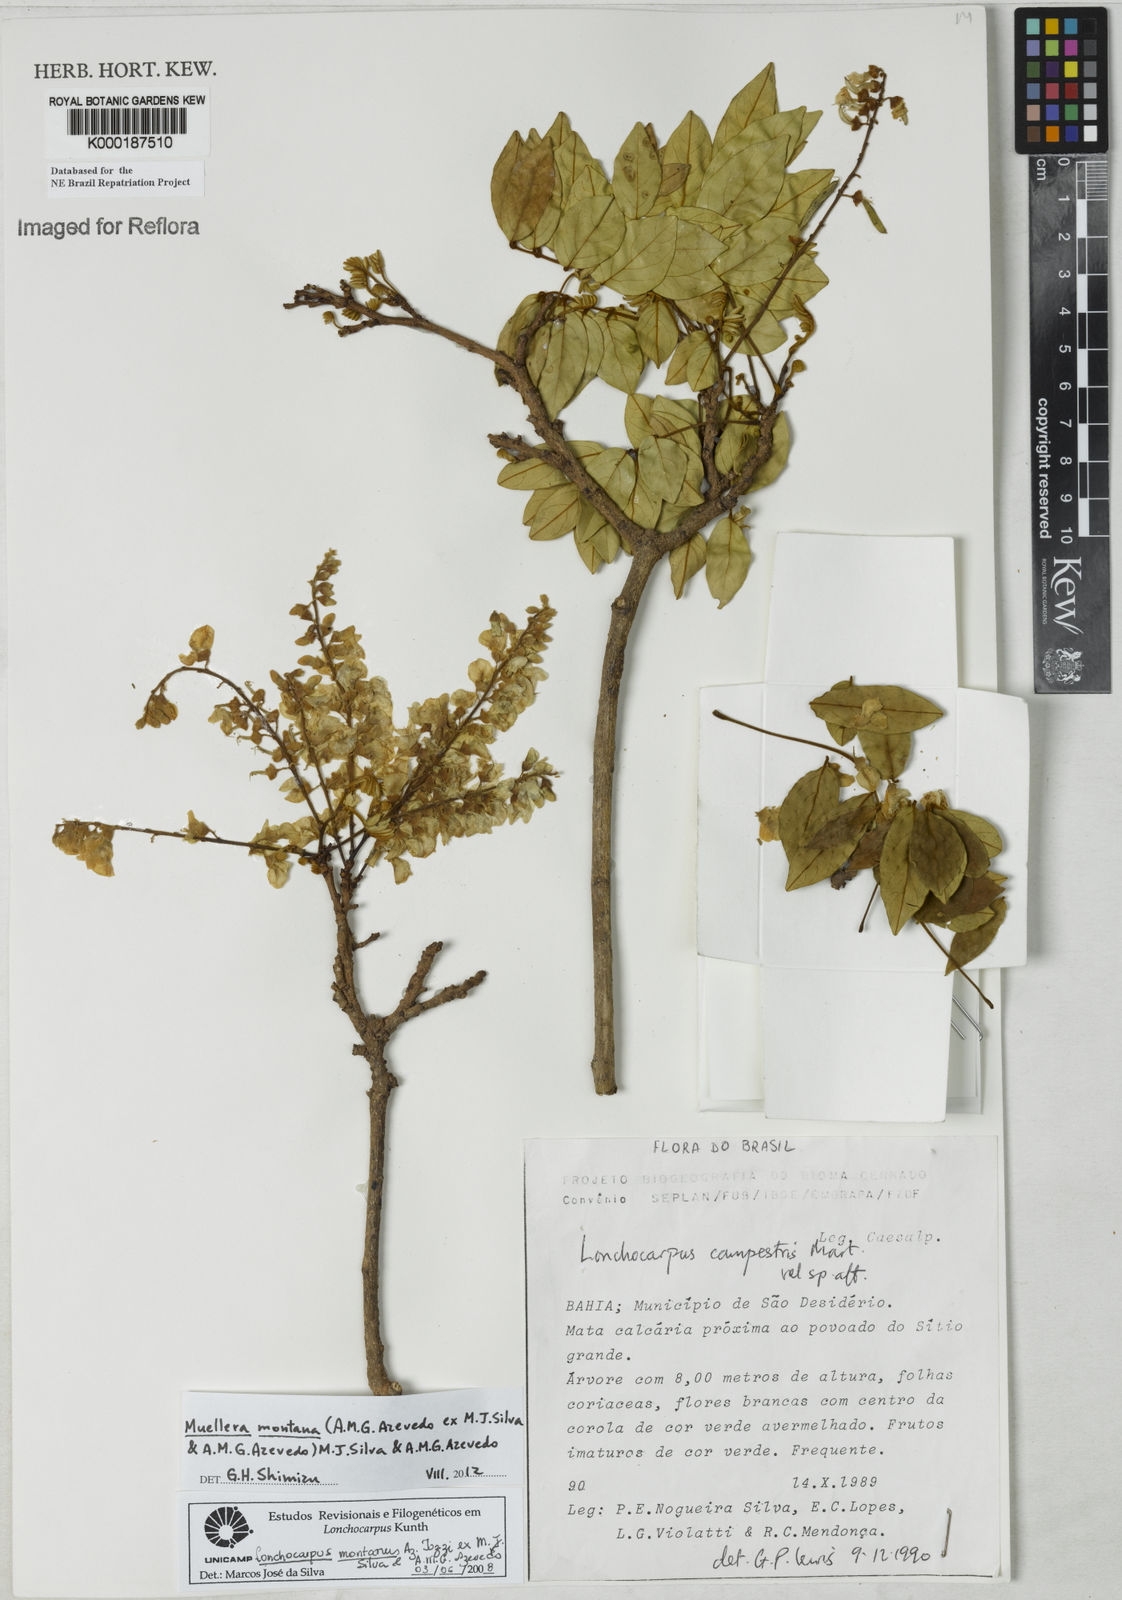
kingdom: Plantae
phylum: Tracheophyta
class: Magnoliopsida
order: Fabales
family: Fabaceae
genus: Muellera
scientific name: Muellera campestris
